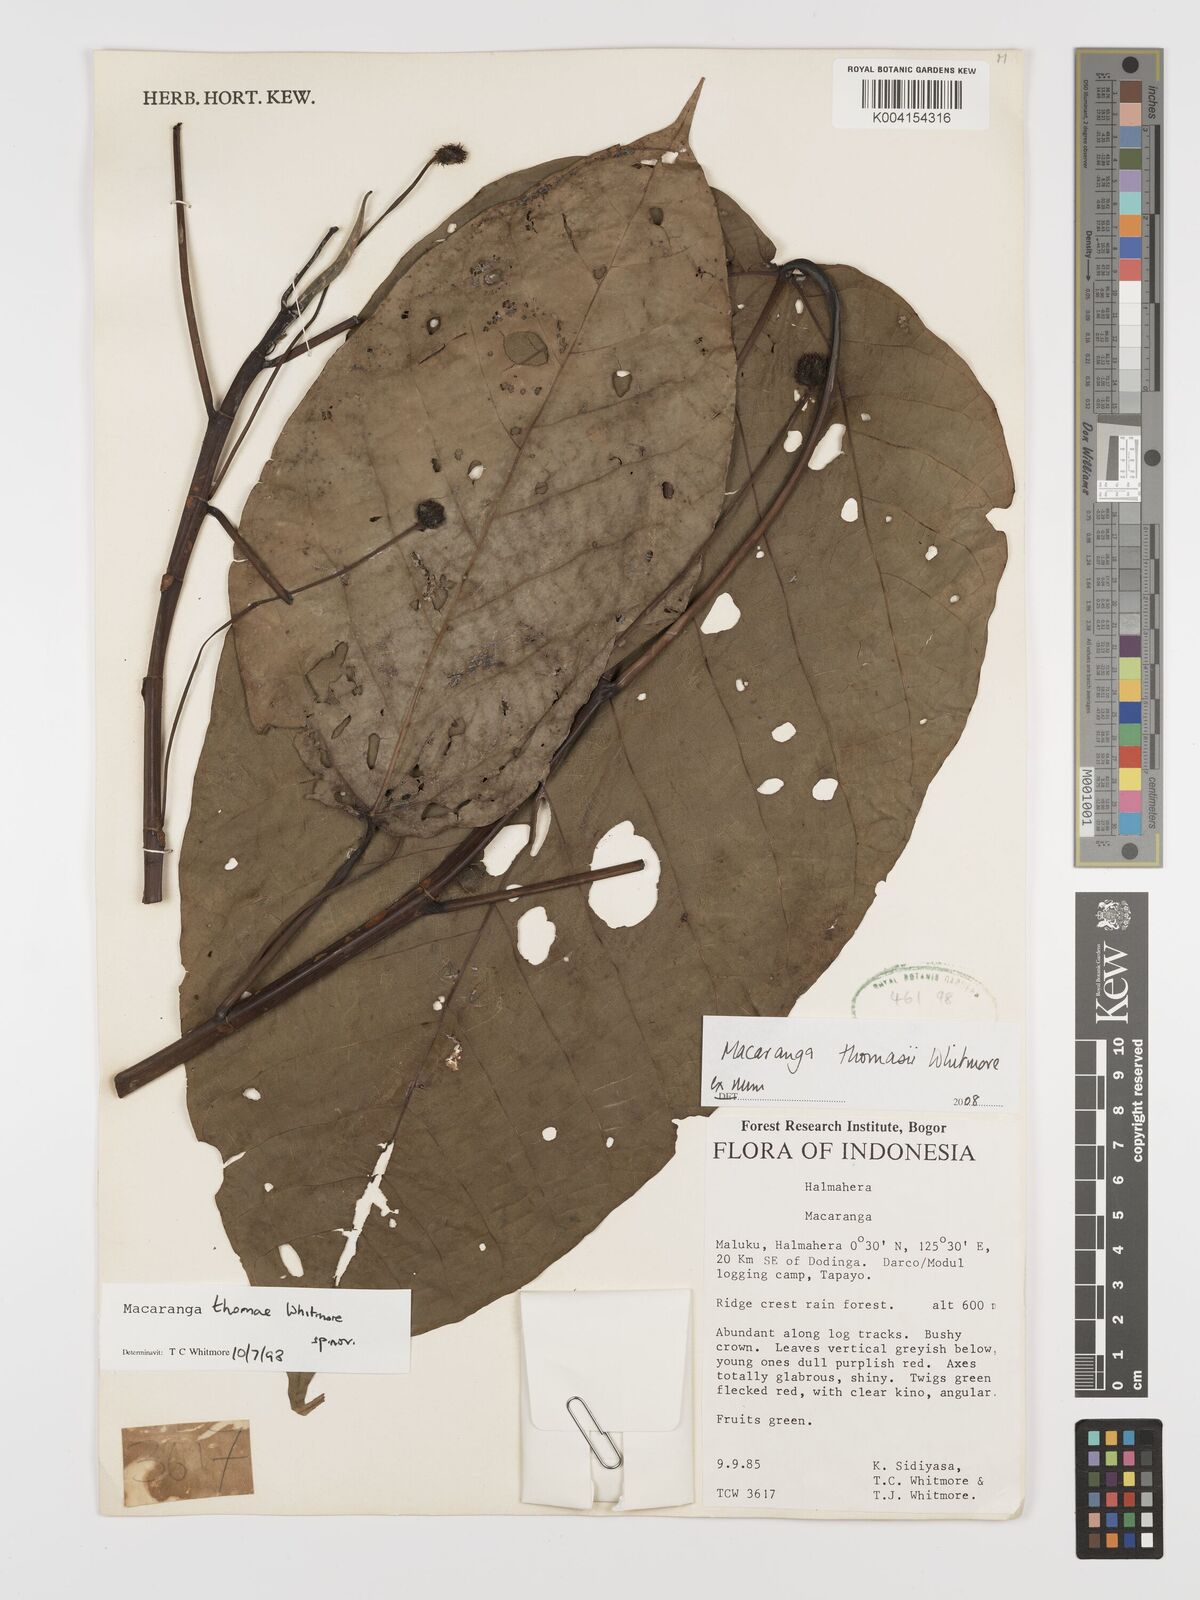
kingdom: Plantae
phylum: Tracheophyta
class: Magnoliopsida
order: Malpighiales
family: Euphorbiaceae
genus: Macaranga
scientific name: Macaranga thomasii
